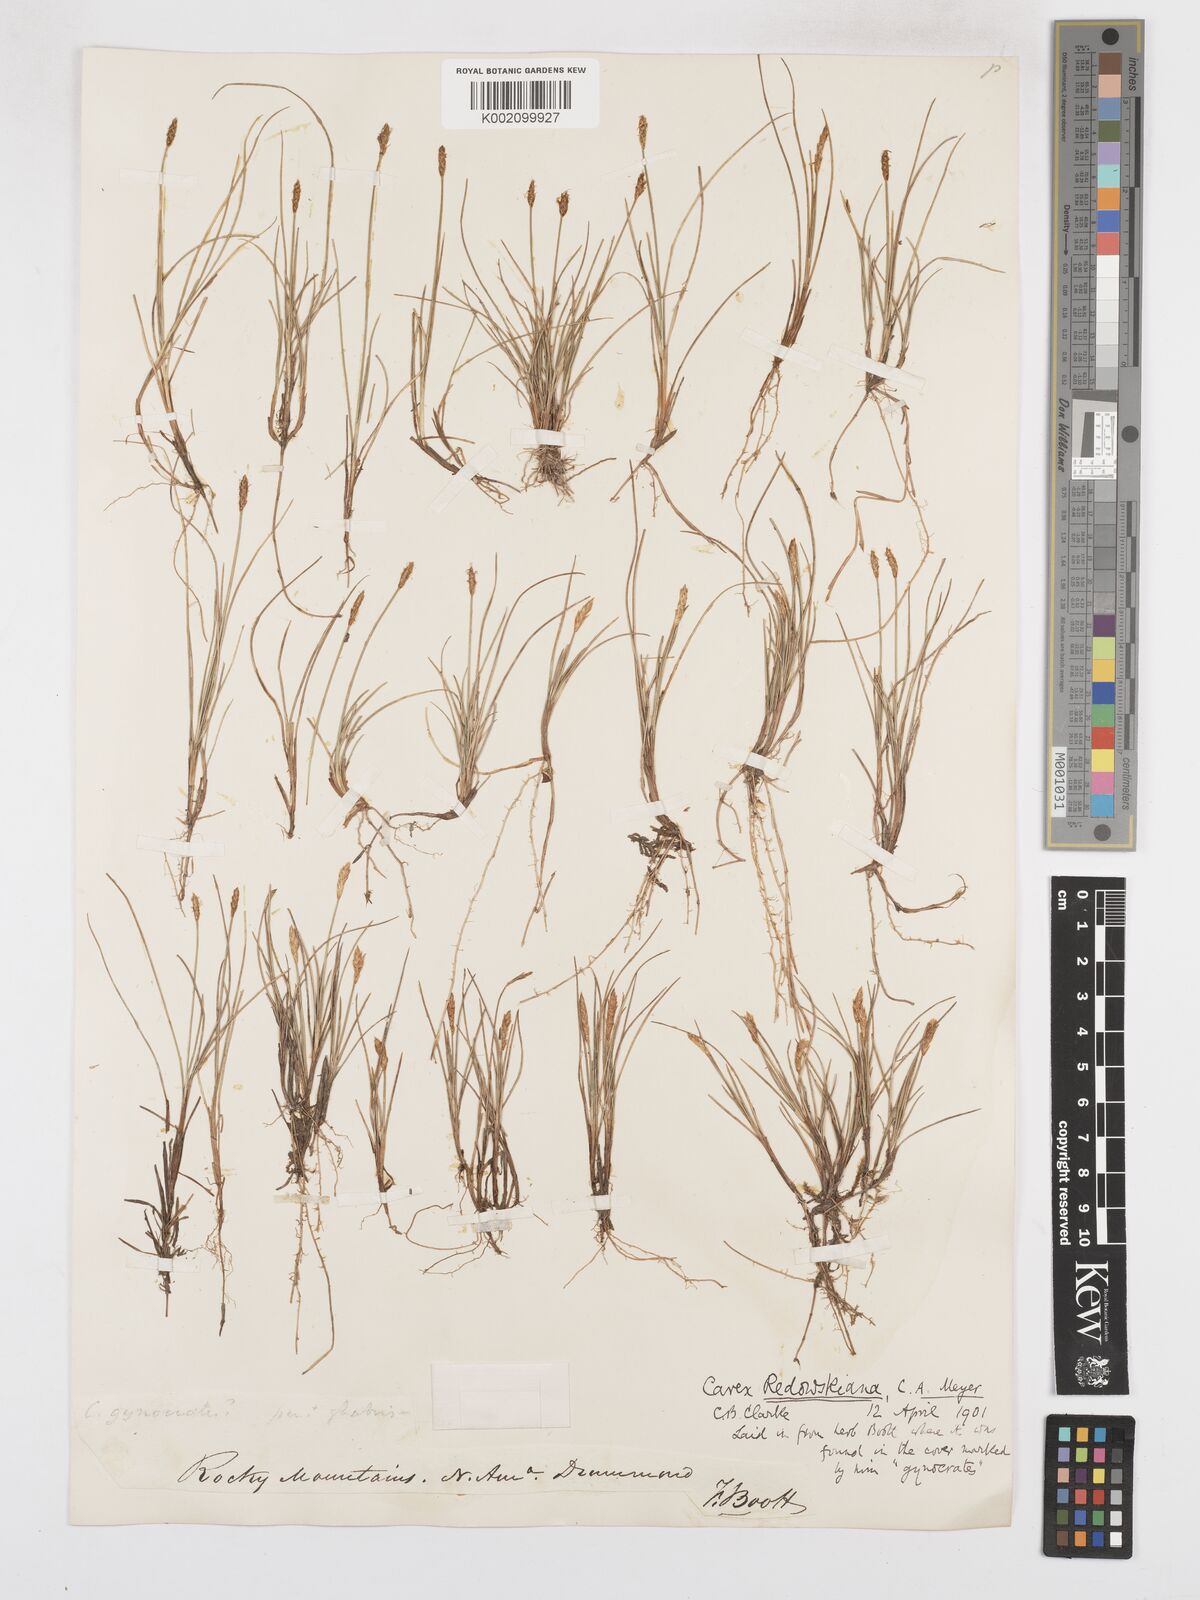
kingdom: Plantae
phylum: Tracheophyta
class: Liliopsida
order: Poales
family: Cyperaceae
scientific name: Cyperaceae
